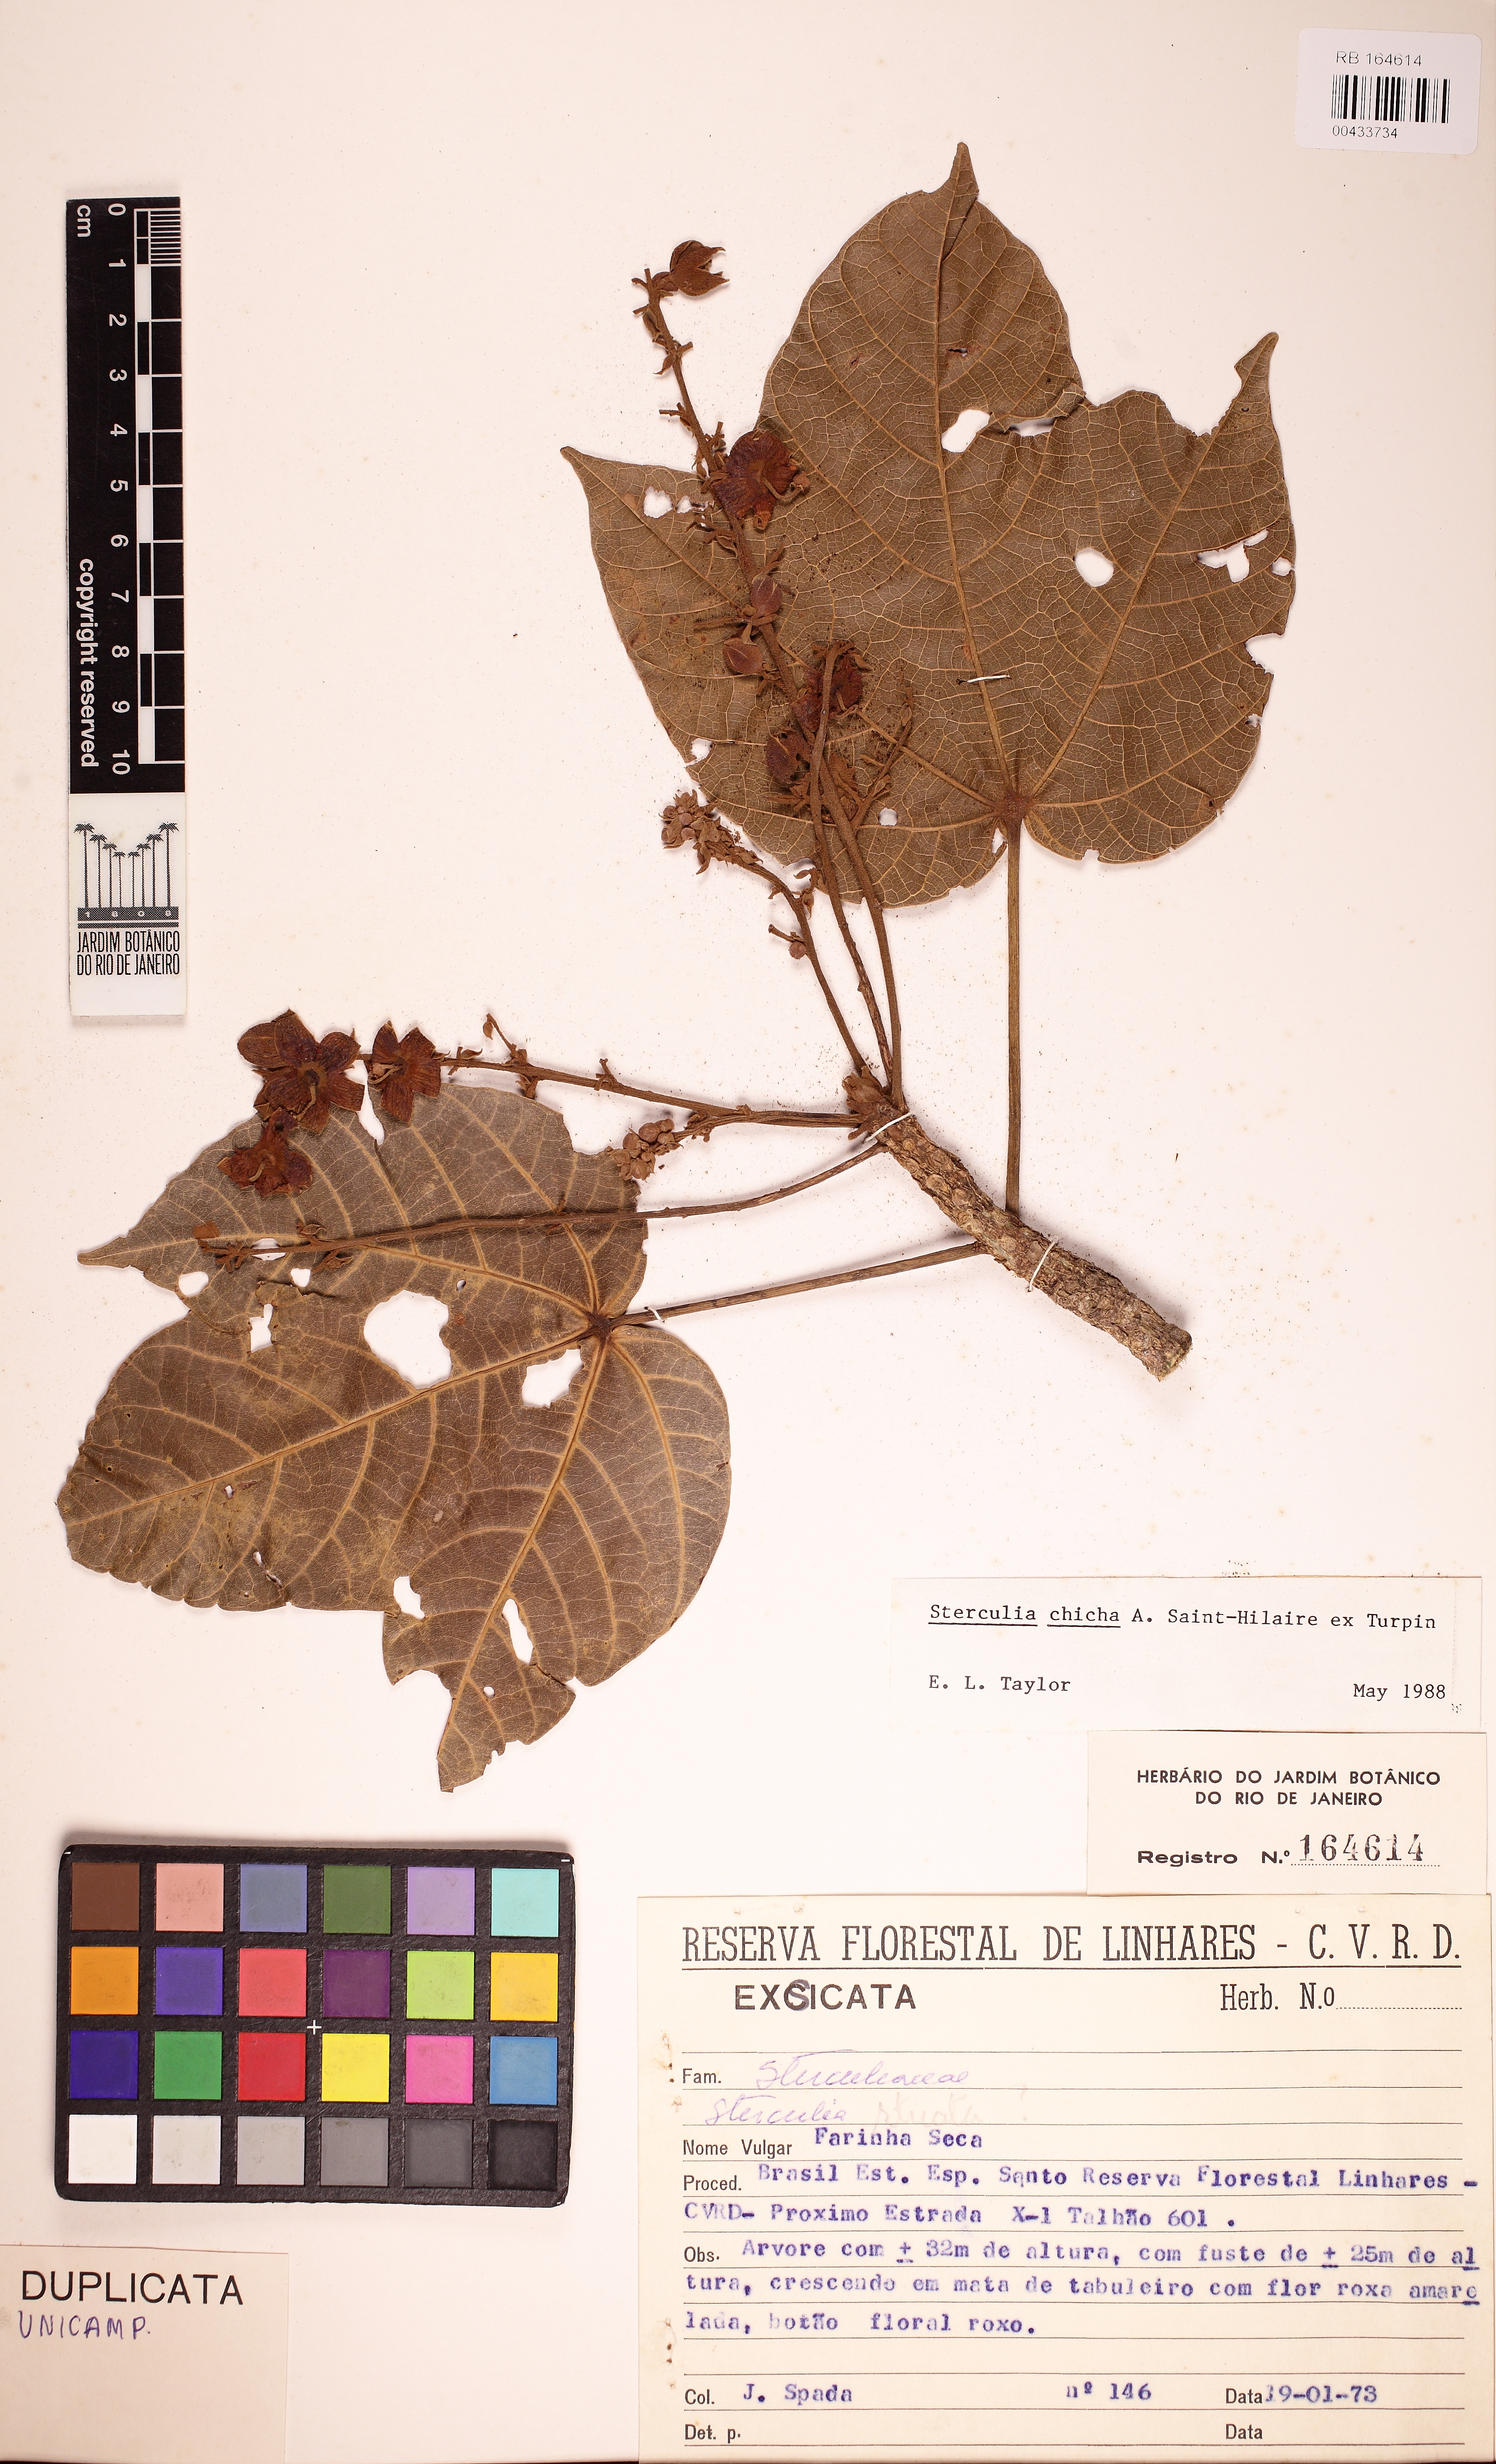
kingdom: Plantae
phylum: Tracheophyta
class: Magnoliopsida
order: Malvales
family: Malvaceae
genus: Sterculia
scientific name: Sterculia apetala
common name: Panama tree
